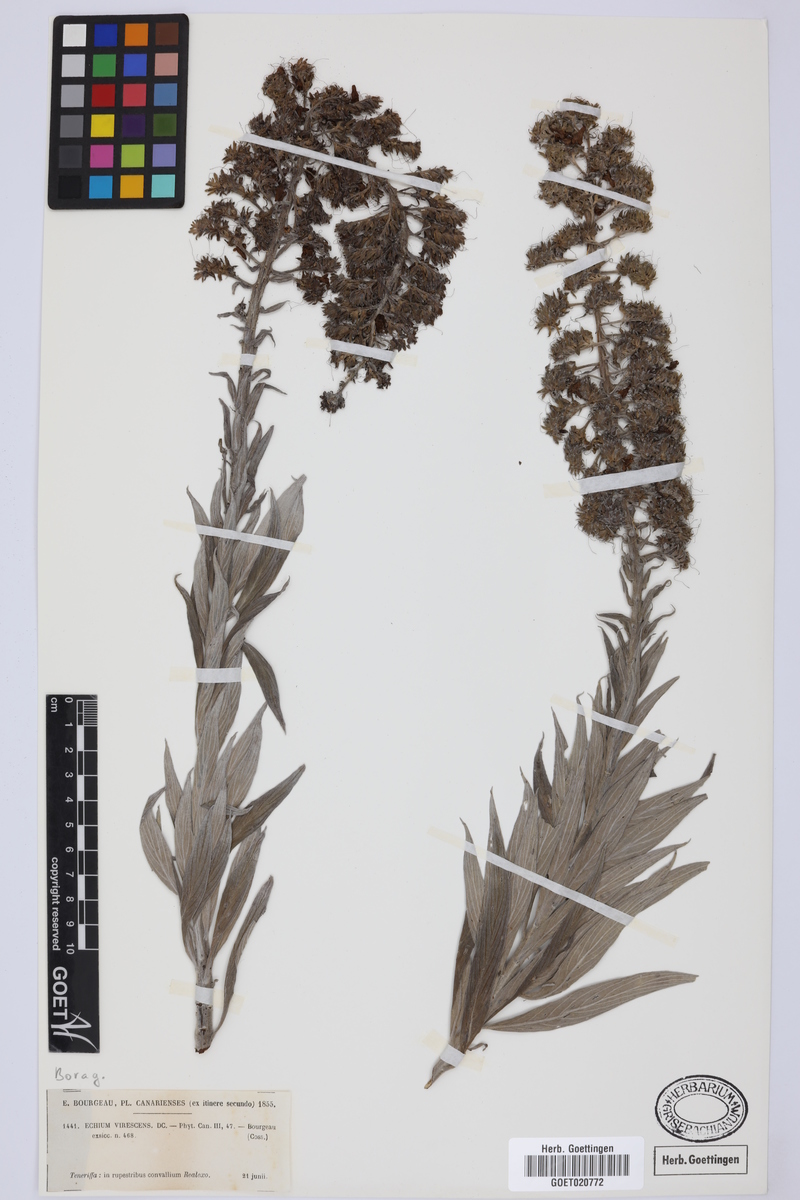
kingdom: Plantae
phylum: Tracheophyta
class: Magnoliopsida
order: Boraginales
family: Boraginaceae
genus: Echium
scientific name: Echium virescens
